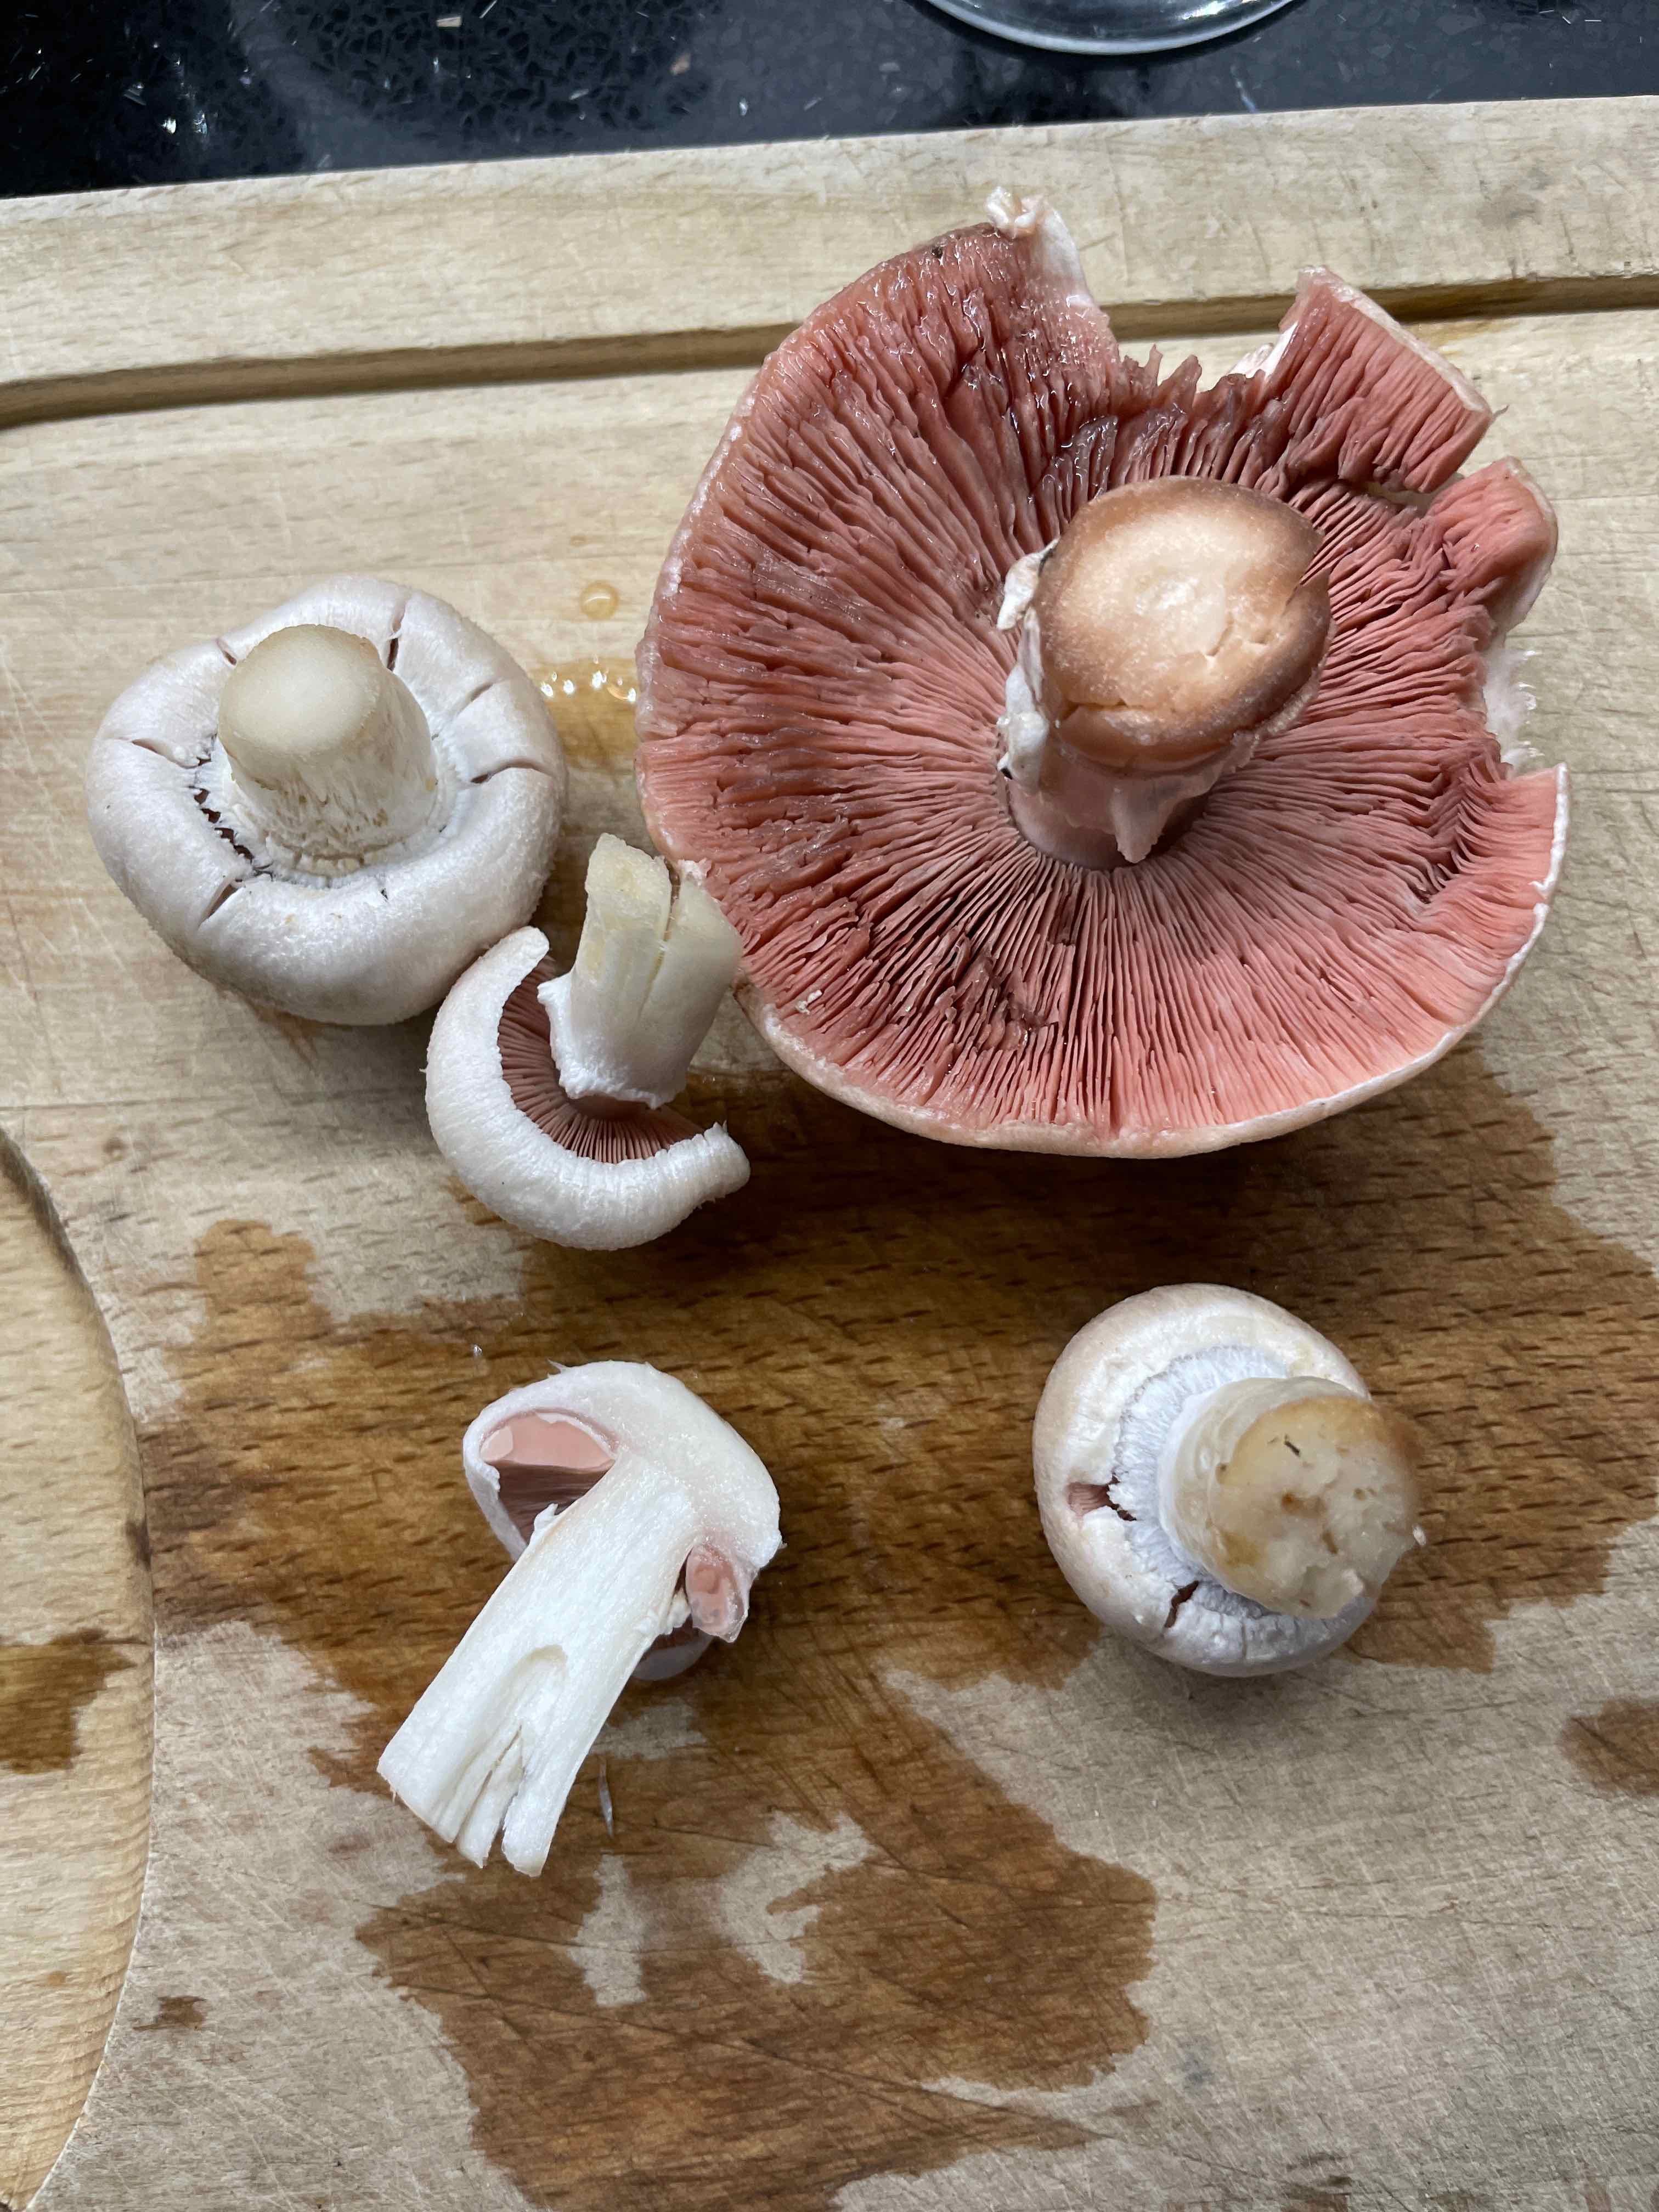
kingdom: Fungi
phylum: Basidiomycota
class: Agaricomycetes
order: Agaricales
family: Agaricaceae
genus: Agaricus
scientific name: Agaricus campestris
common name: mark-champignon
